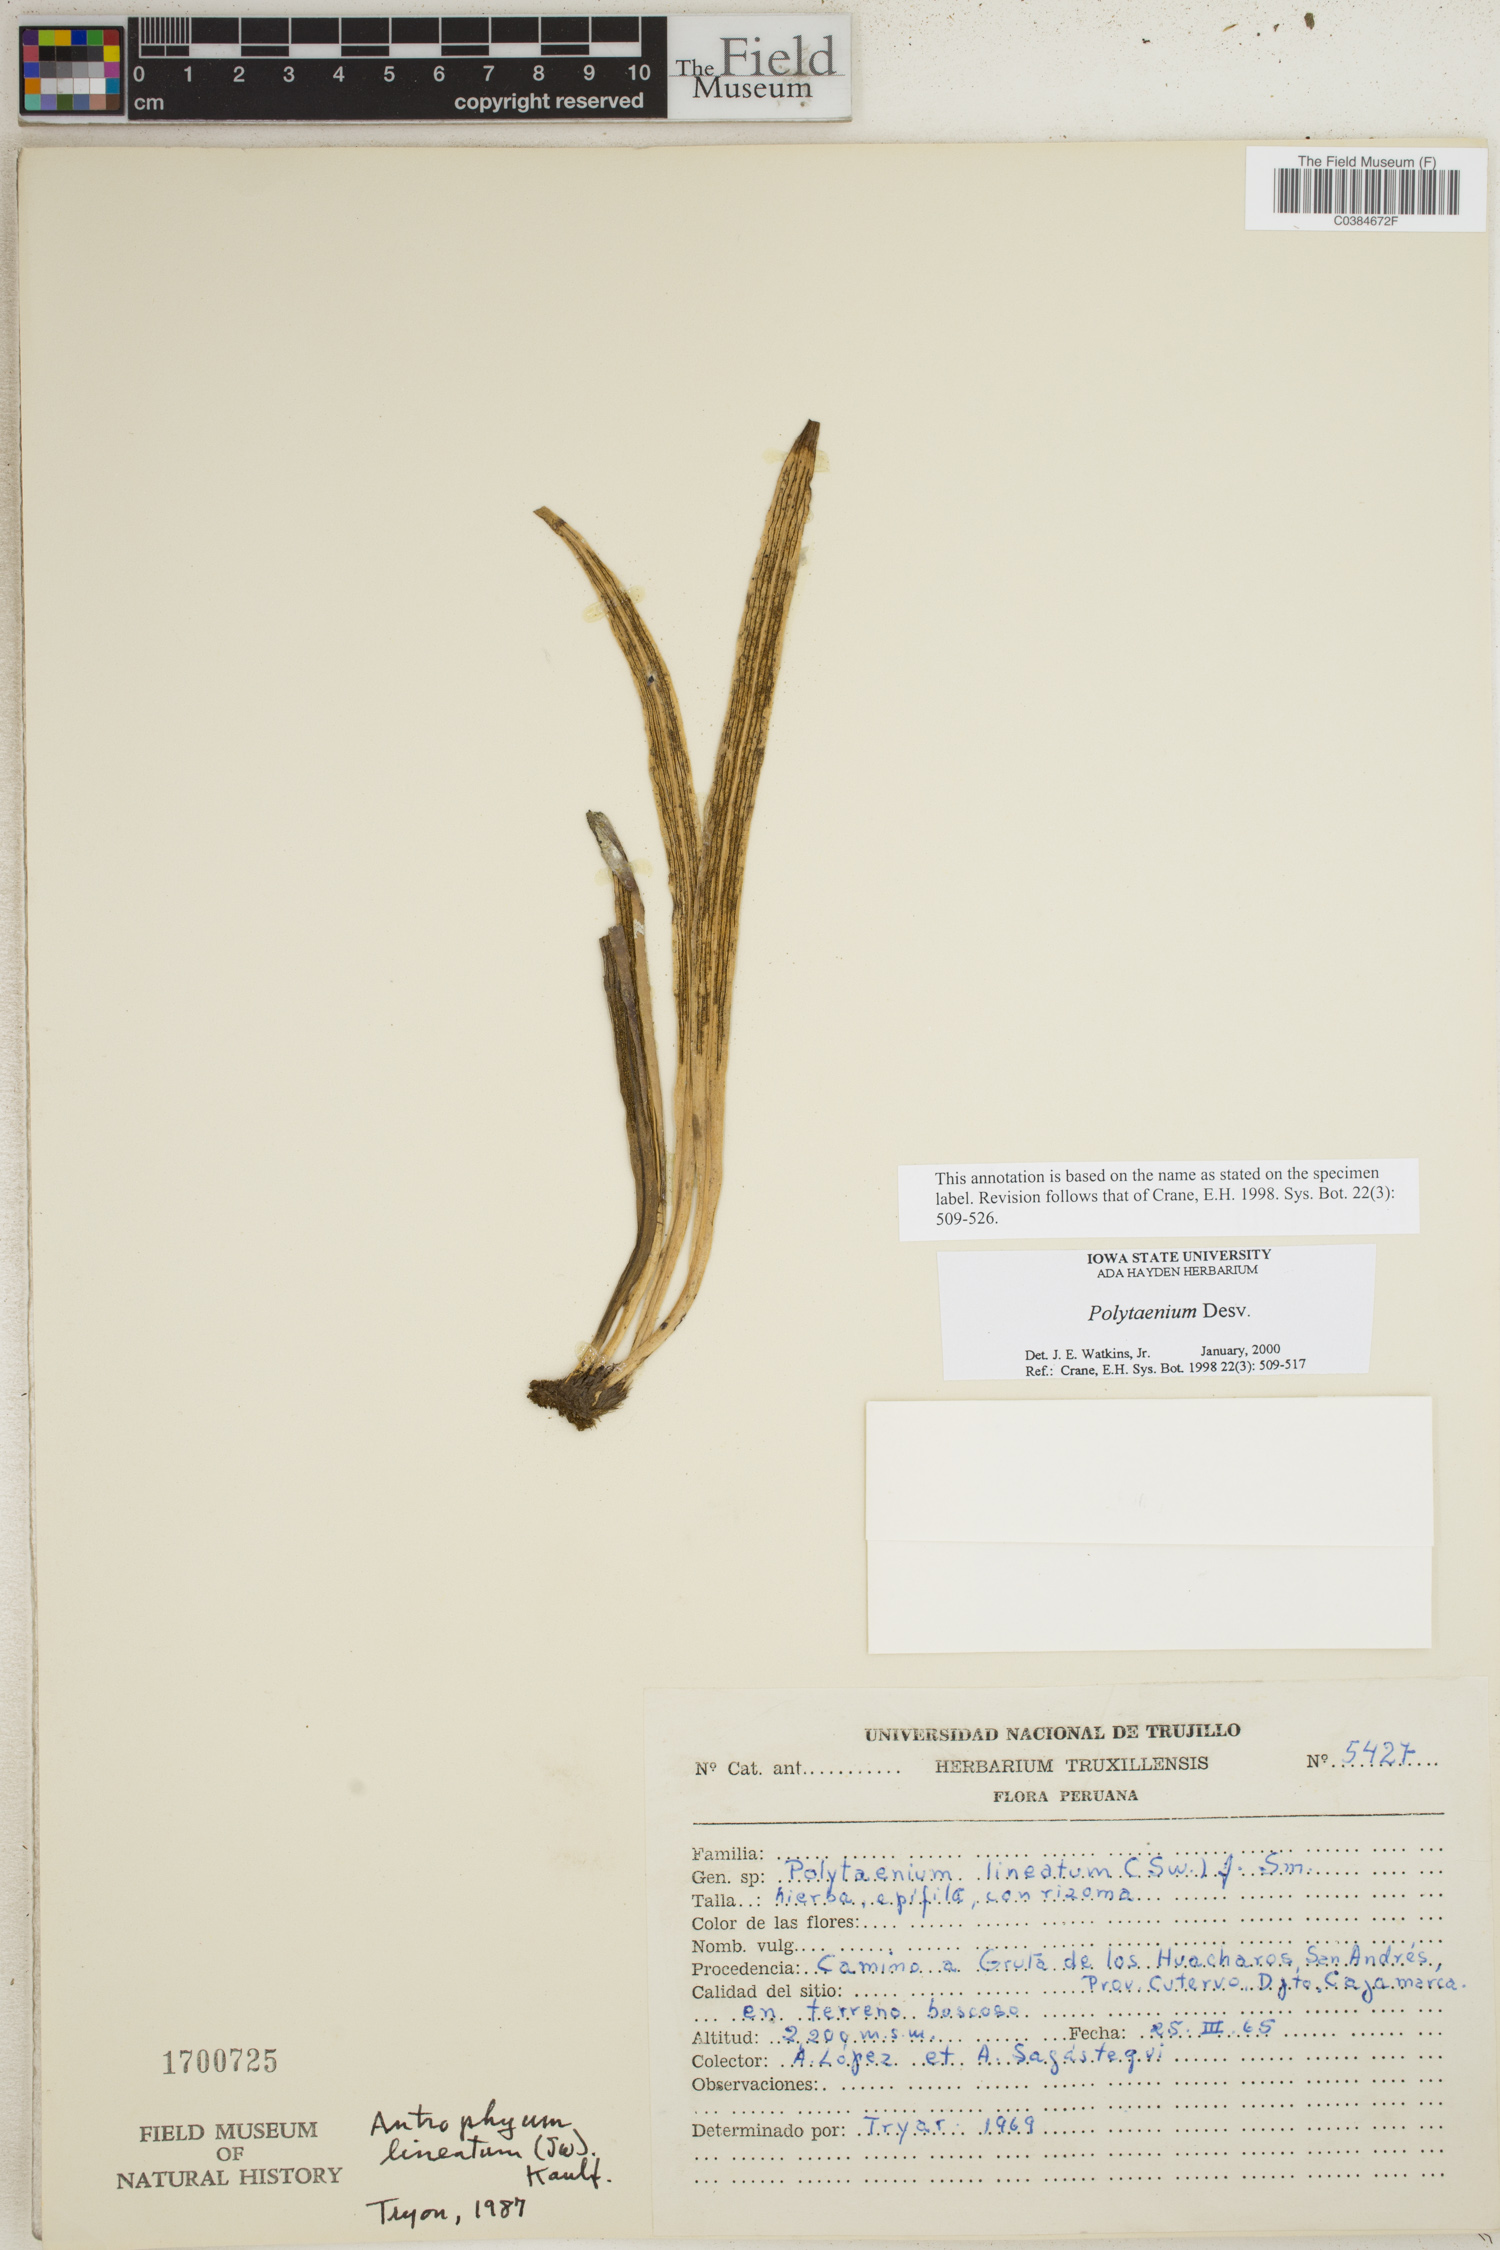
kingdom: Plantae
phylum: Tracheophyta
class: Polypodiopsida
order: Polypodiales
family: Pteridaceae
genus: Polytaenium
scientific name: Polytaenium
